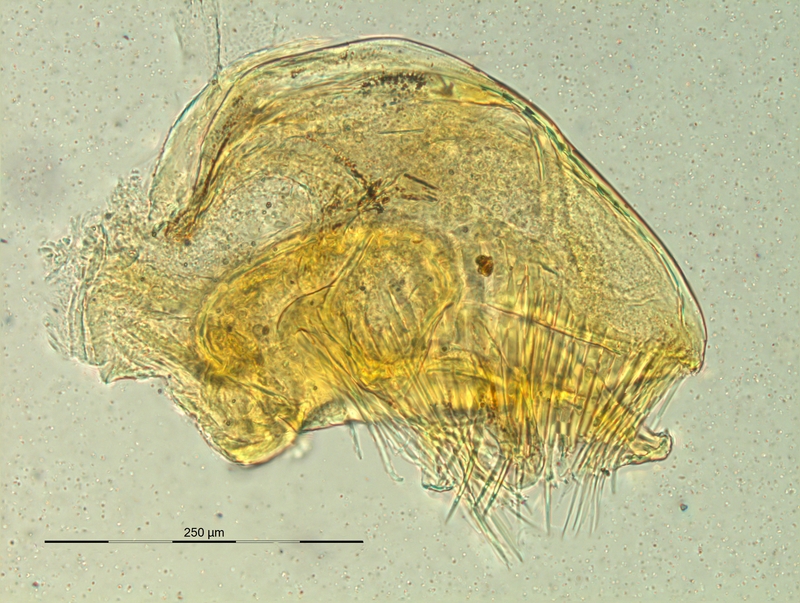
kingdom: Animalia
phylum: Arthropoda
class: Diplopoda
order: Chordeumatida
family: Craspedosomatidae
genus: Pyrgocyphosoma
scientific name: Pyrgocyphosoma savonense
